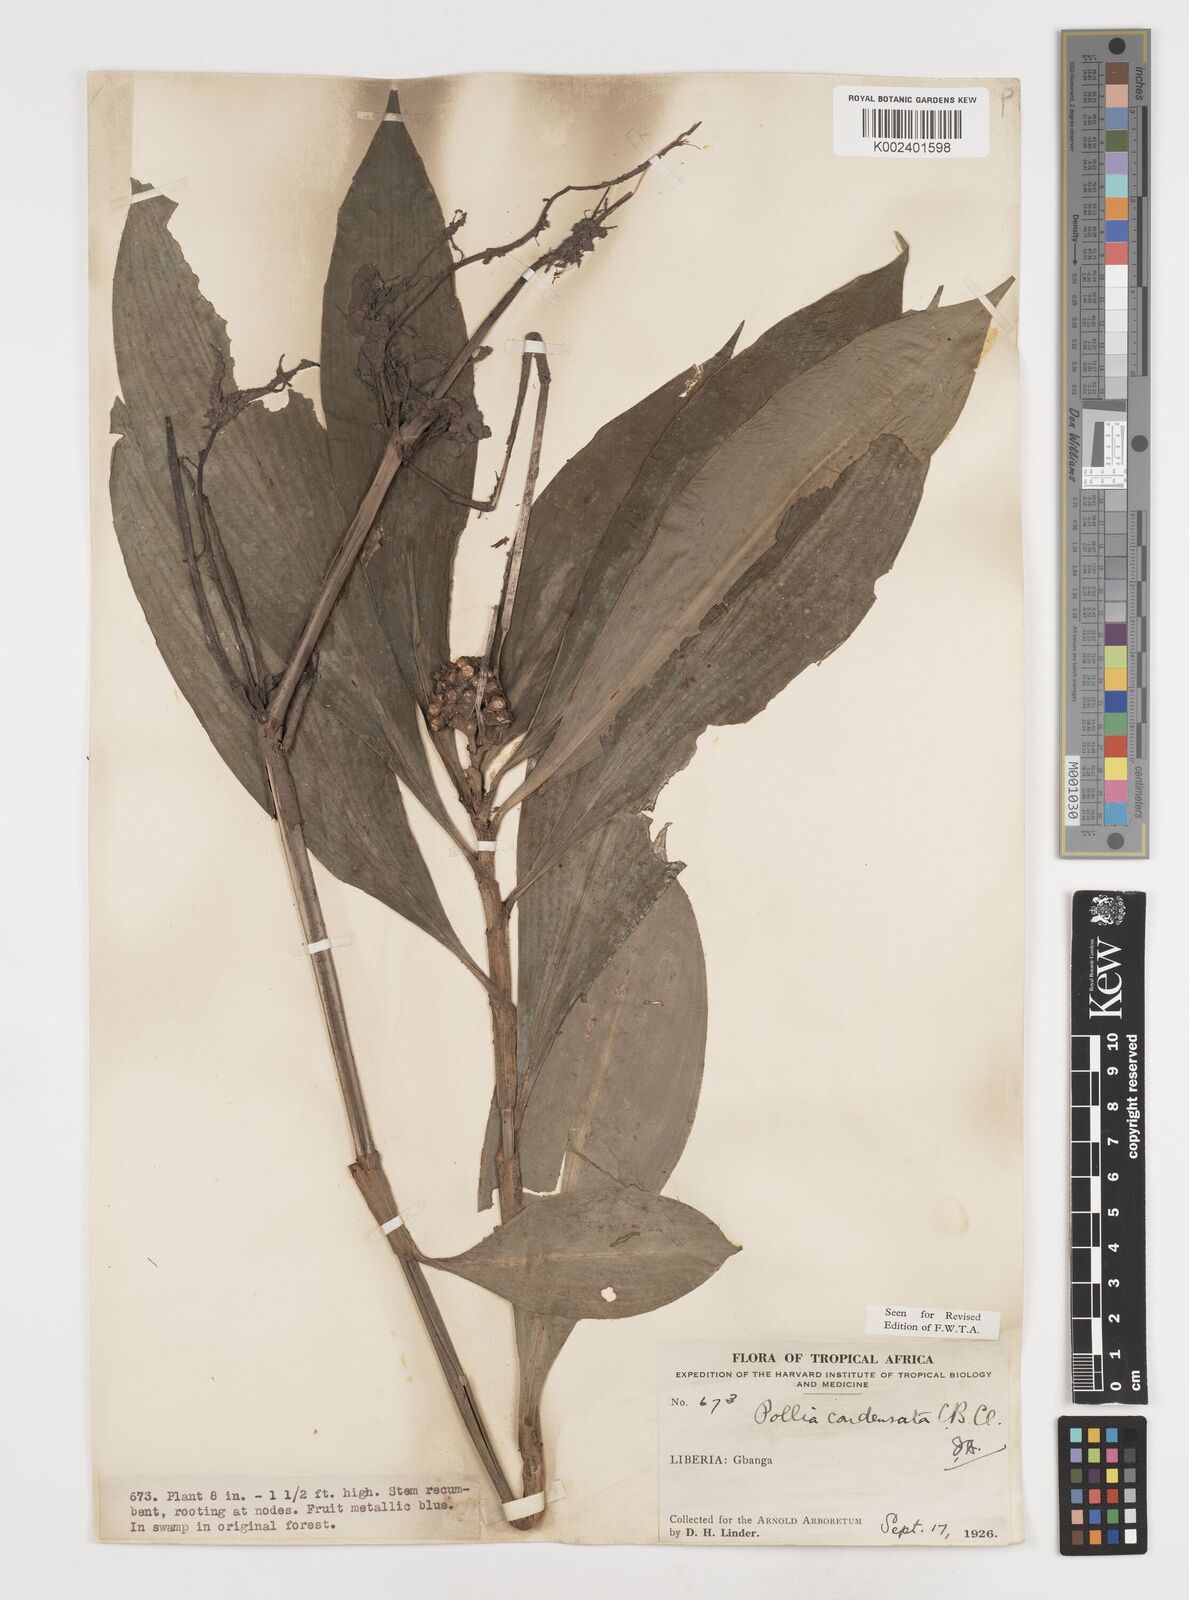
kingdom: Plantae
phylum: Tracheophyta
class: Liliopsida
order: Commelinales
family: Commelinaceae
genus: Pollia
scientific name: Pollia condensata
